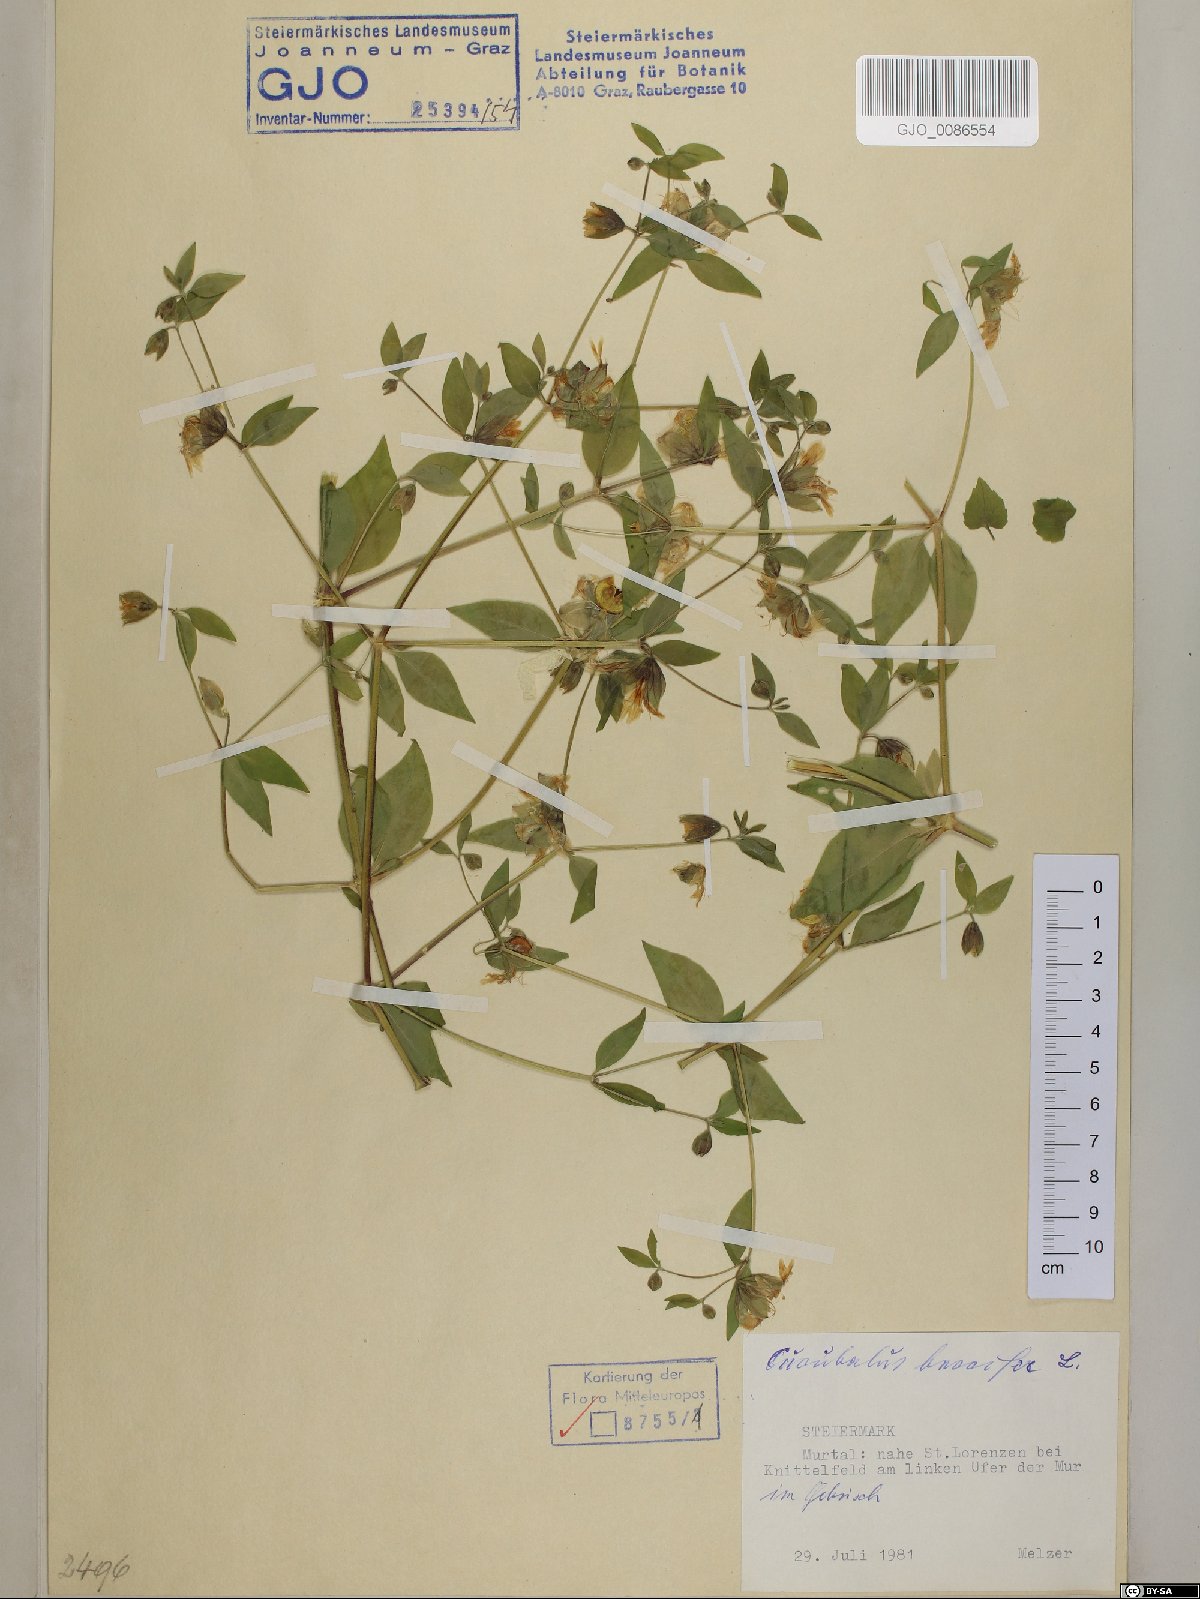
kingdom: Plantae
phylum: Tracheophyta
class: Magnoliopsida
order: Caryophyllales
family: Caryophyllaceae
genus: Silene
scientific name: Silene baccifera
